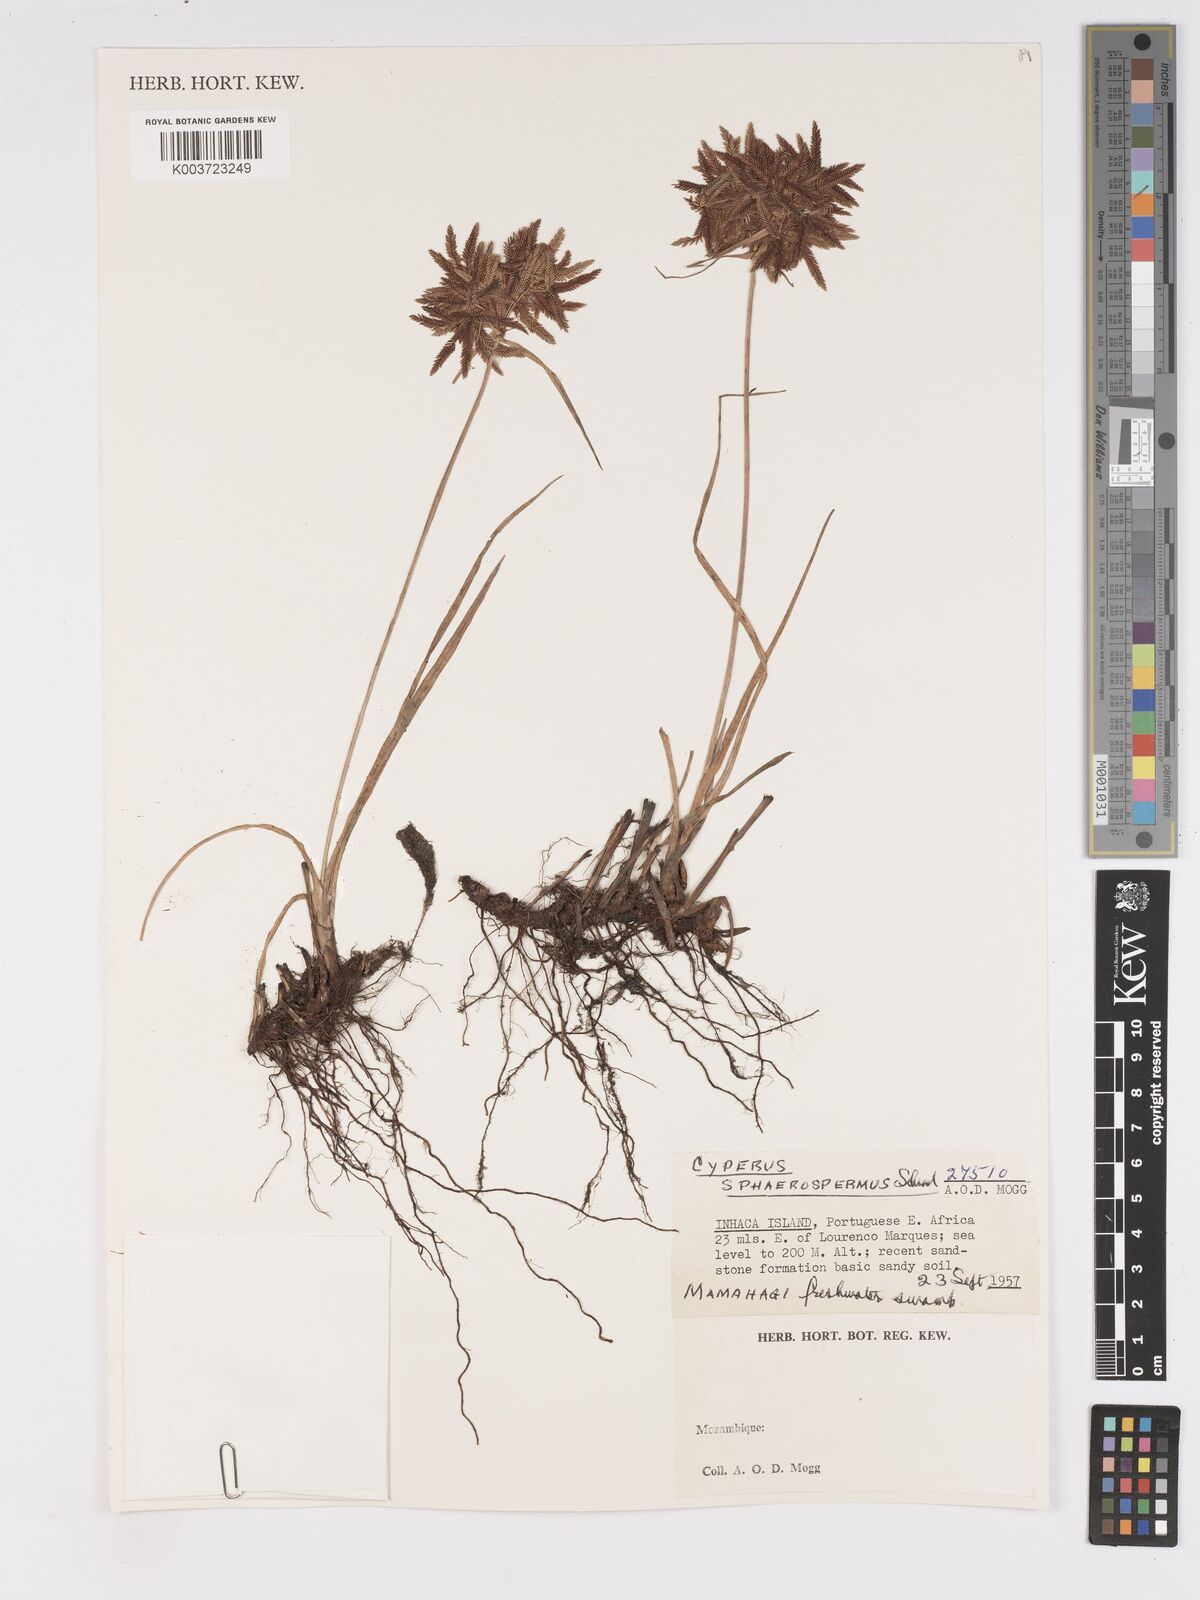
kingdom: Plantae
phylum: Tracheophyta
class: Liliopsida
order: Poales
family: Cyperaceae
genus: Cyperus
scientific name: Cyperus denudatus
